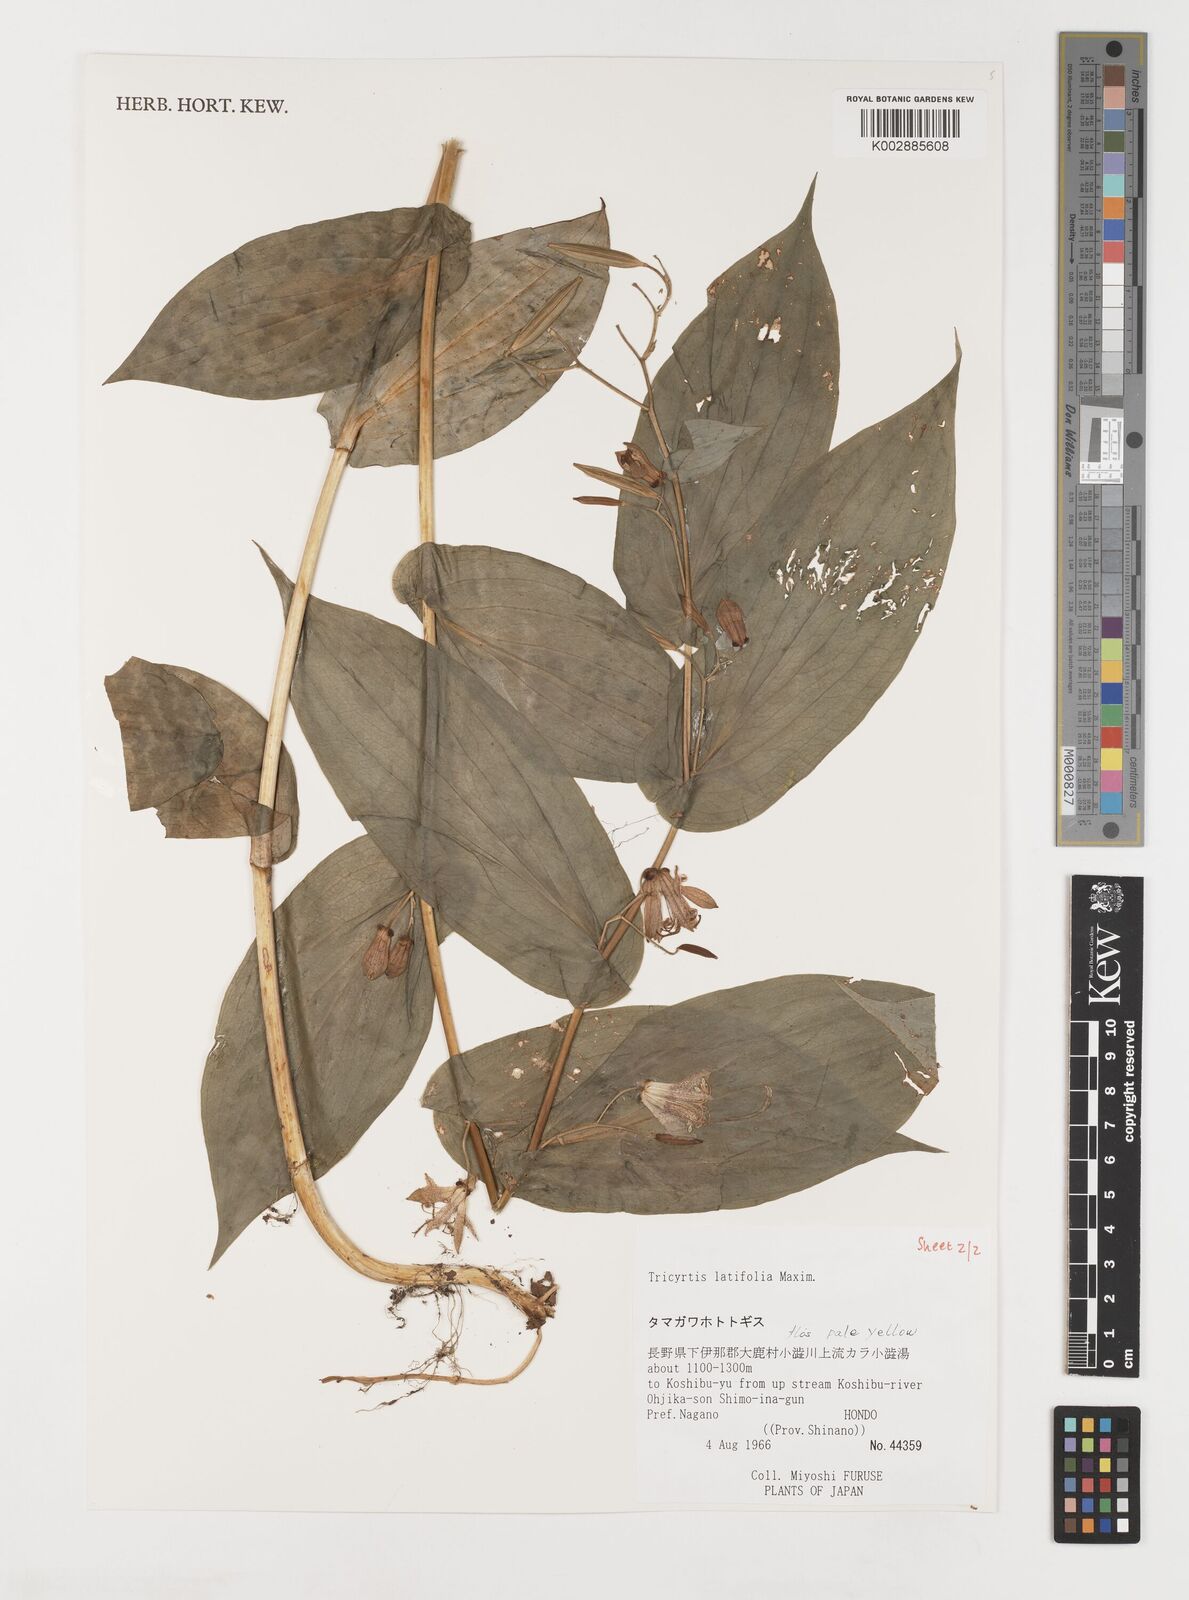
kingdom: Plantae
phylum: Tracheophyta
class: Liliopsida
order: Liliales
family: Liliaceae
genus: Tricyrtis
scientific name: Tricyrtis latifolia
